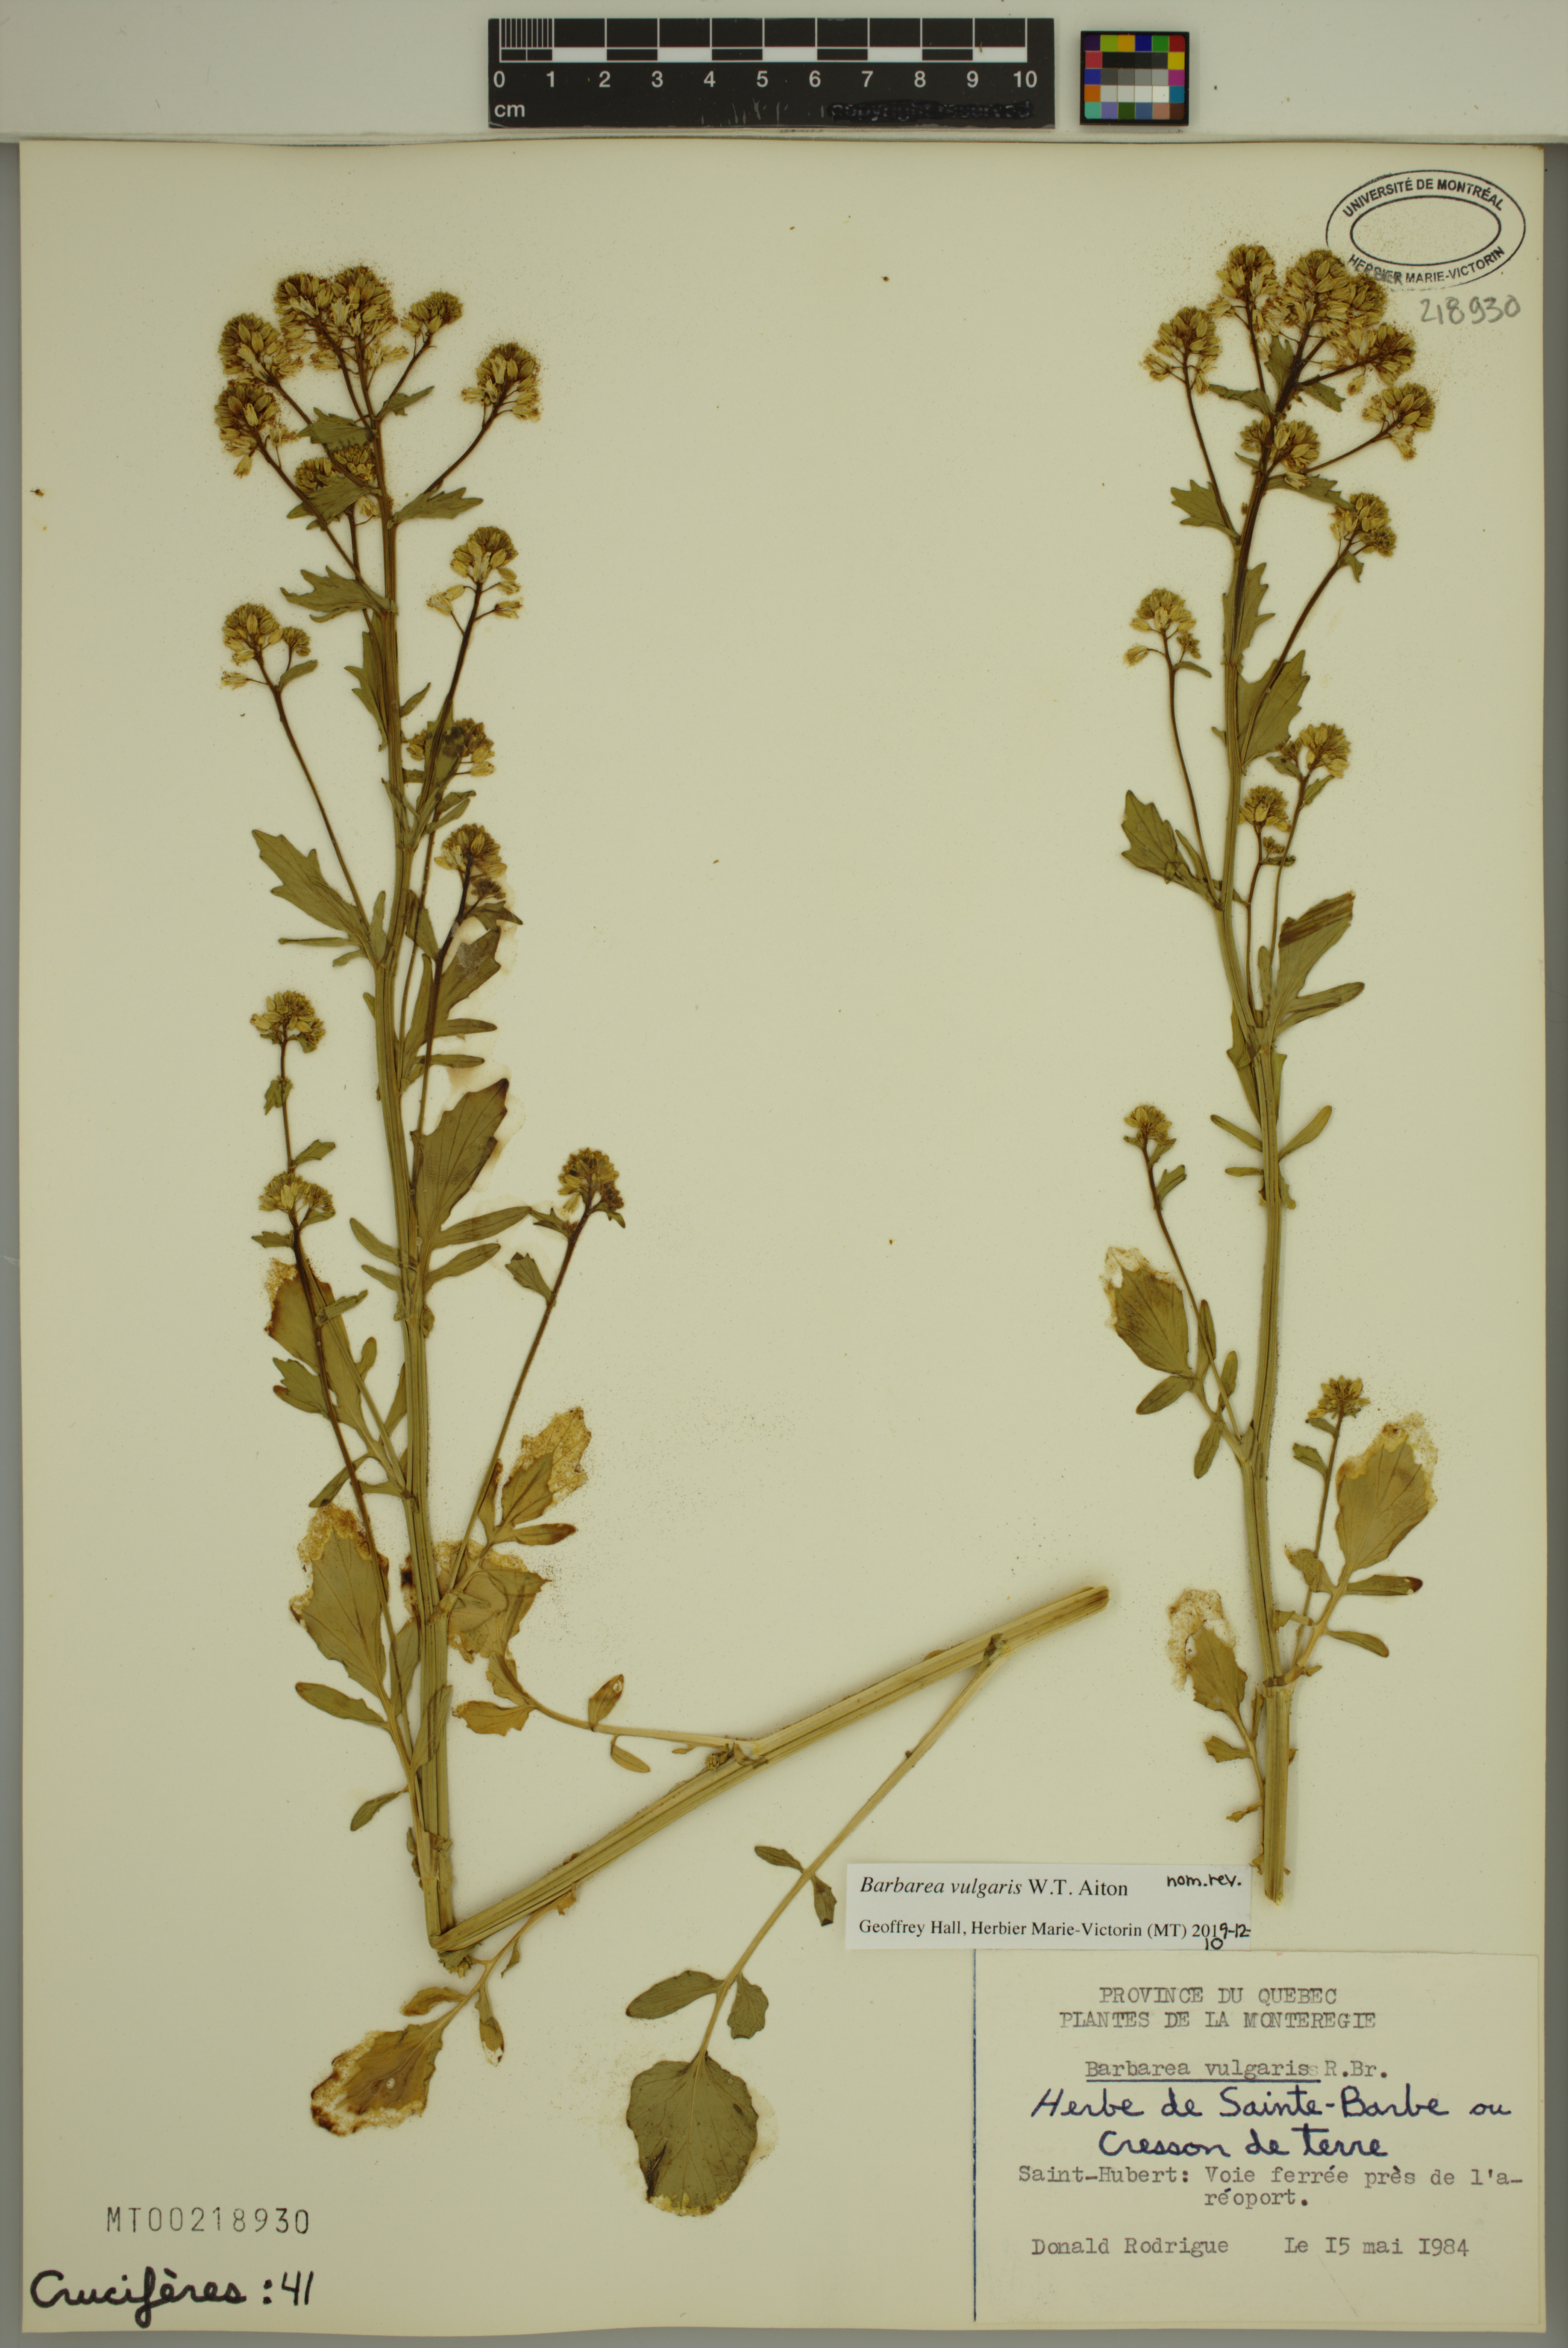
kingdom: Plantae
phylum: Tracheophyta
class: Magnoliopsida
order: Brassicales
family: Brassicaceae
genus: Barbarea
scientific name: Barbarea vulgaris
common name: Cressy-greens
